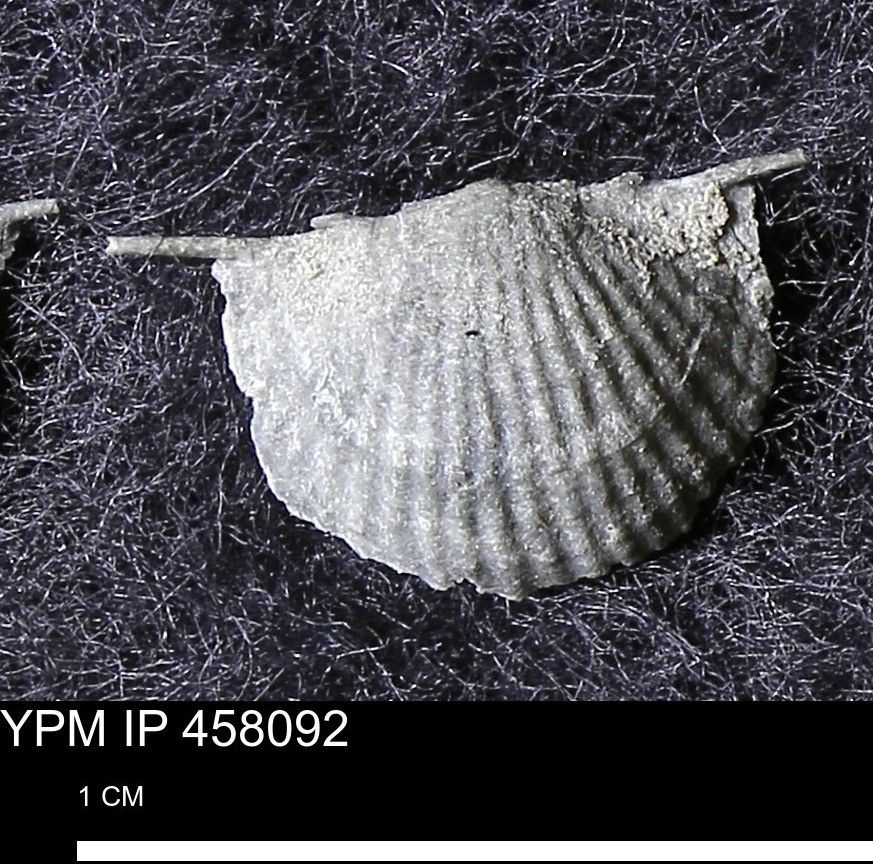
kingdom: Animalia
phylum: Brachiopoda
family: Chonetidae
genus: Longispina
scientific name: Longispina Strophomena mucronata
